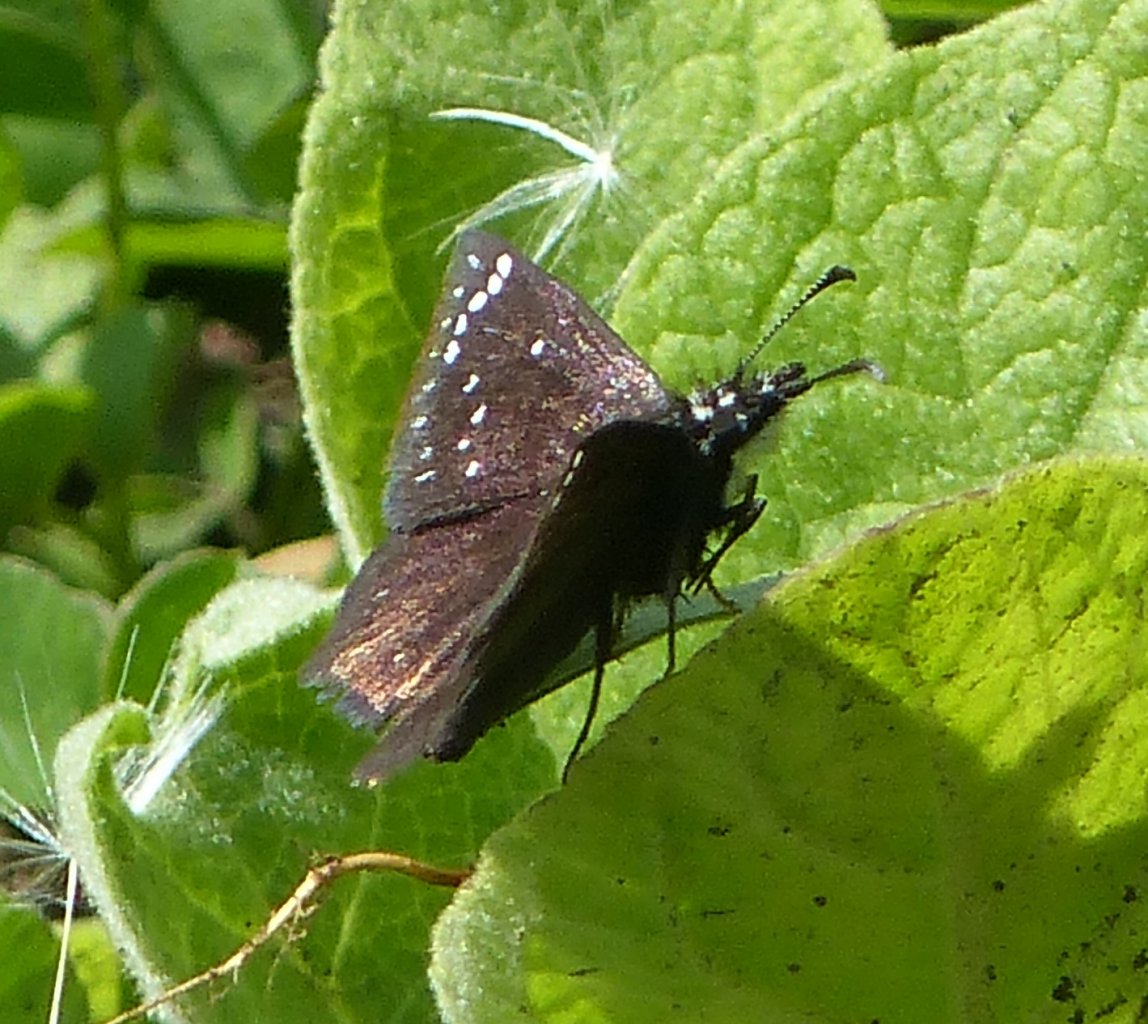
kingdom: Animalia
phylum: Arthropoda
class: Insecta
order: Lepidoptera
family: Hesperiidae
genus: Pholisora
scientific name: Pholisora catullus
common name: Common Sootywing
